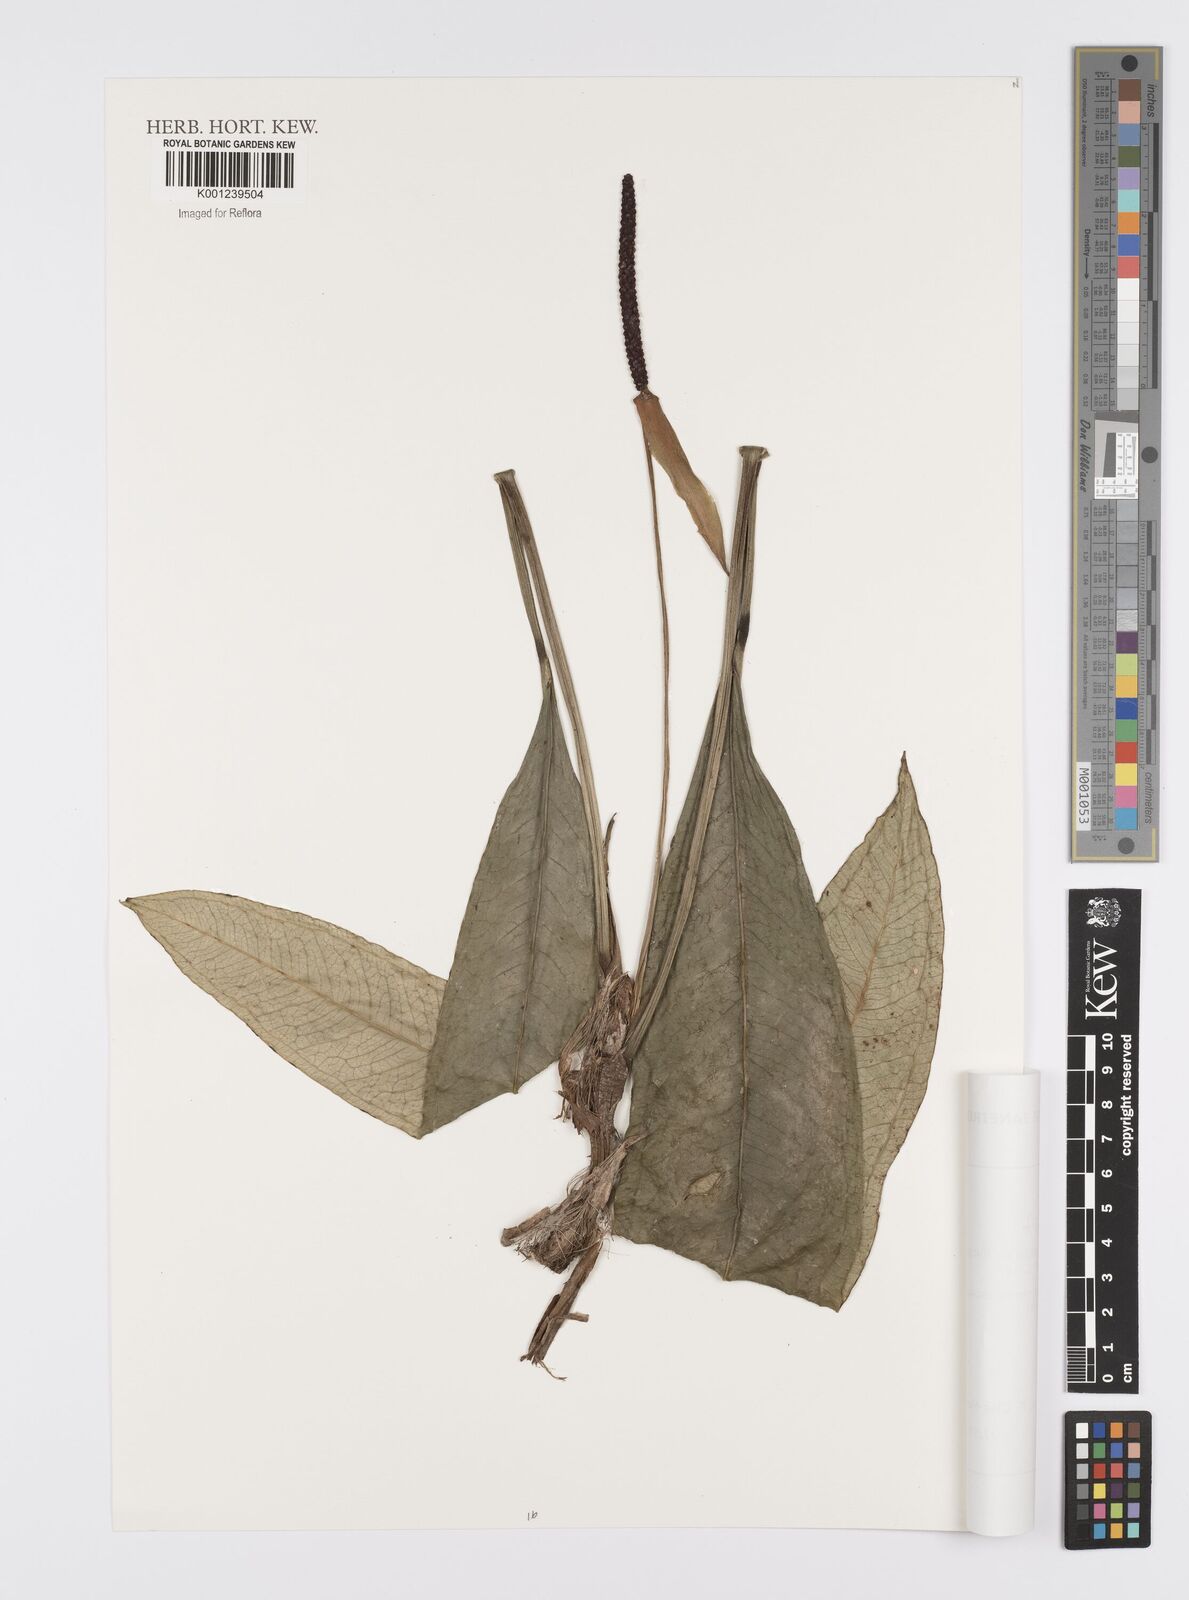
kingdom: Plantae
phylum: Tracheophyta
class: Liliopsida
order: Alismatales
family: Araceae
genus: Anthurium
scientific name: Anthurium boudetii
